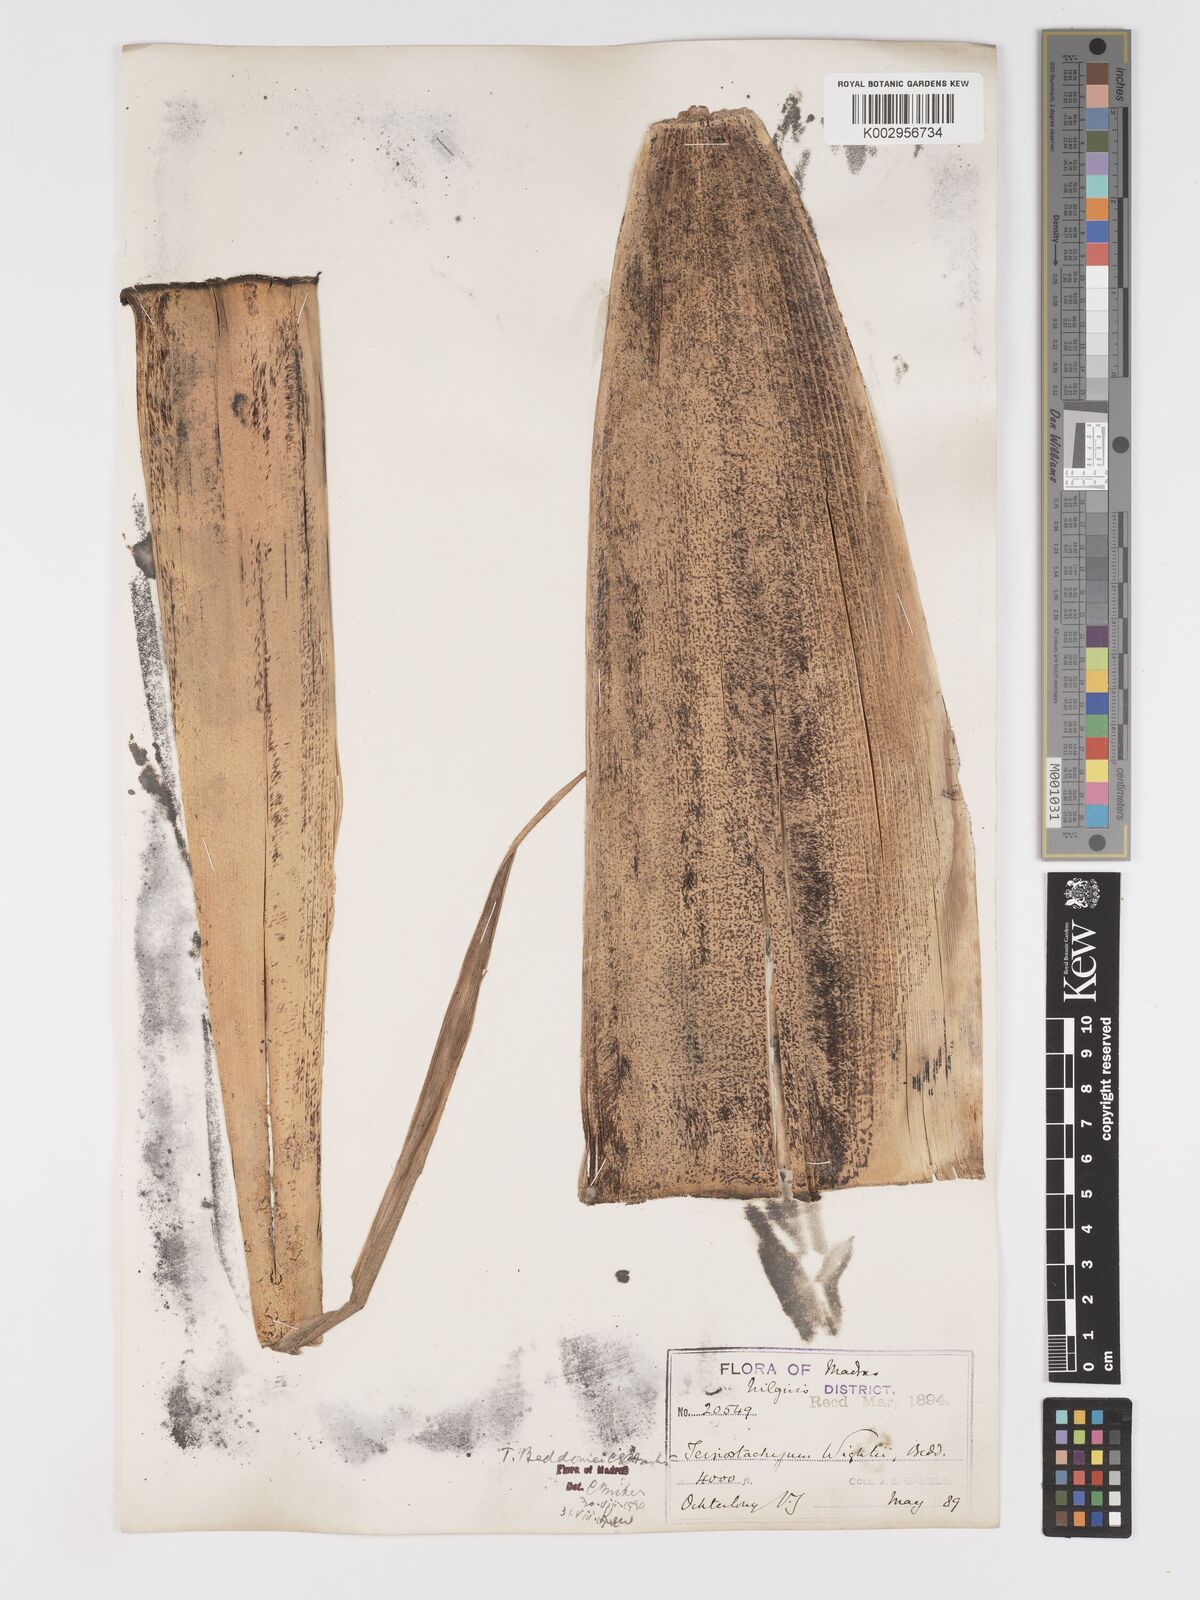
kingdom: Plantae
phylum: Tracheophyta
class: Liliopsida
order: Poales
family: Poaceae
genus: Schizostachyum
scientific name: Schizostachyum beddomei
